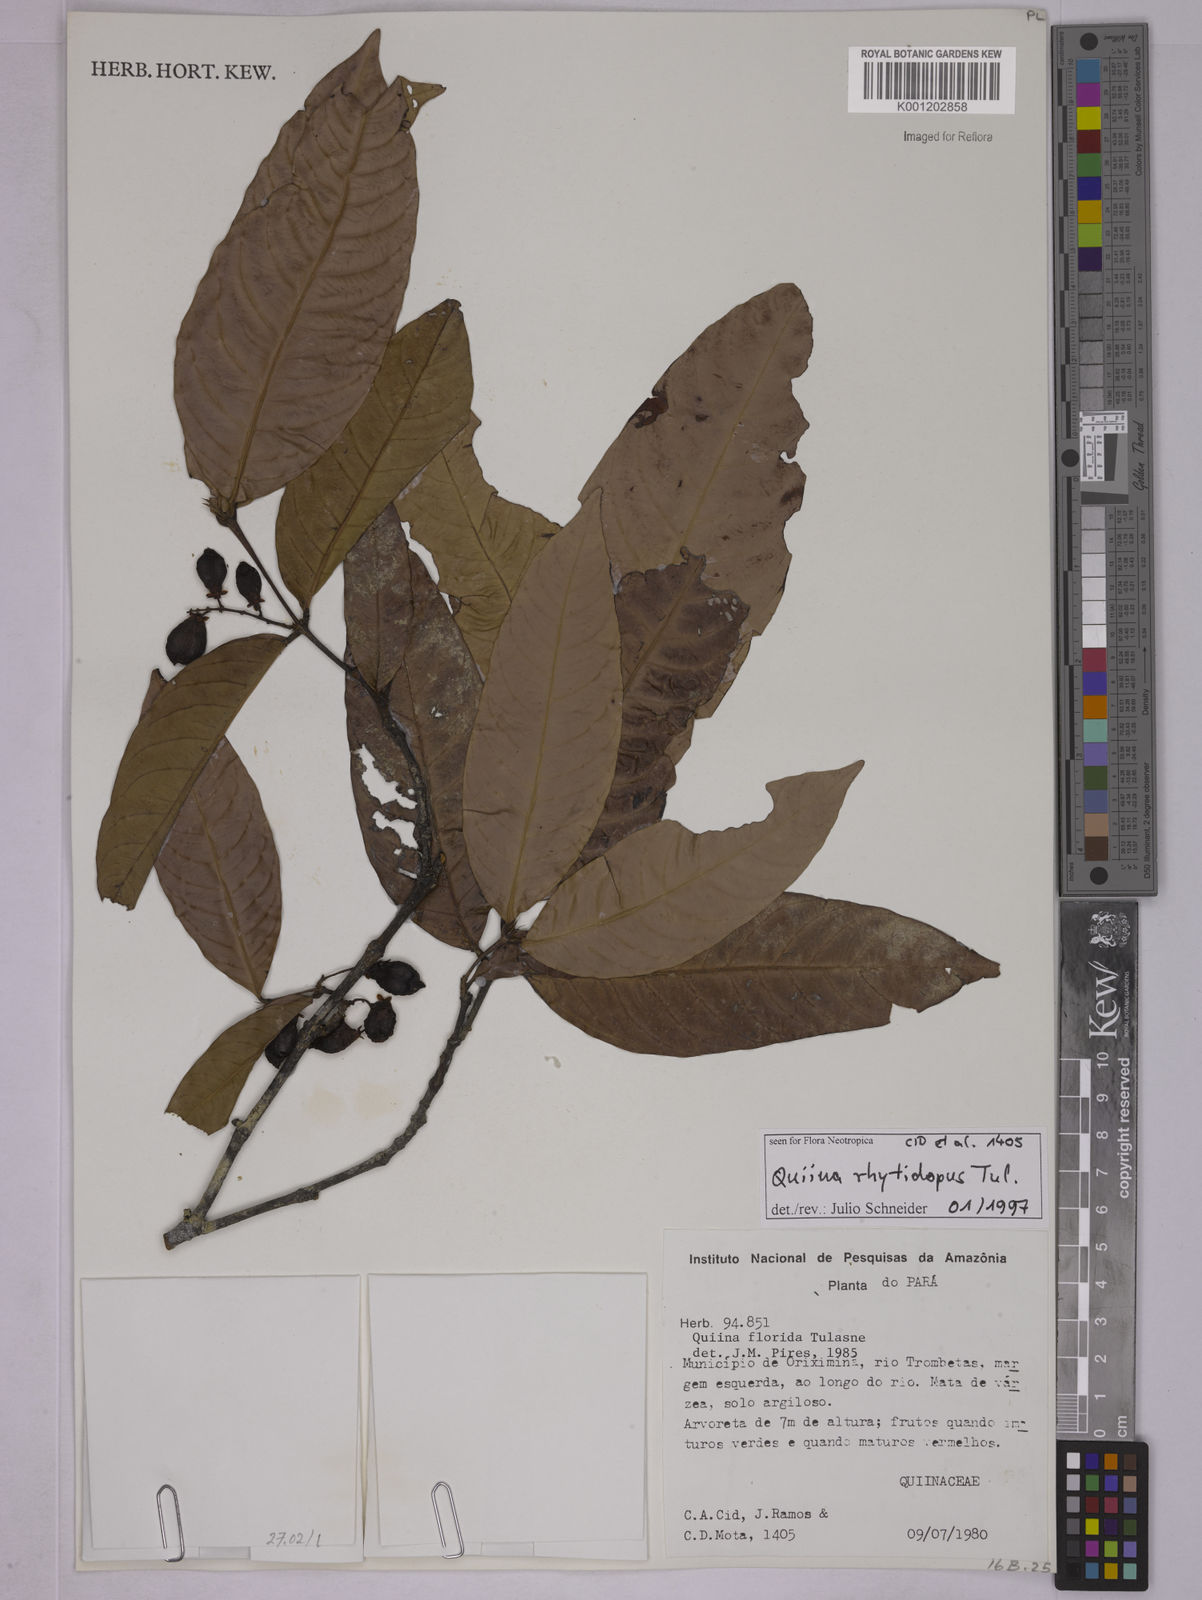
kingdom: Plantae
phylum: Tracheophyta
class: Magnoliopsida
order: Malpighiales
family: Quiinaceae
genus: Quiina
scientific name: Quiina rhytidopus
